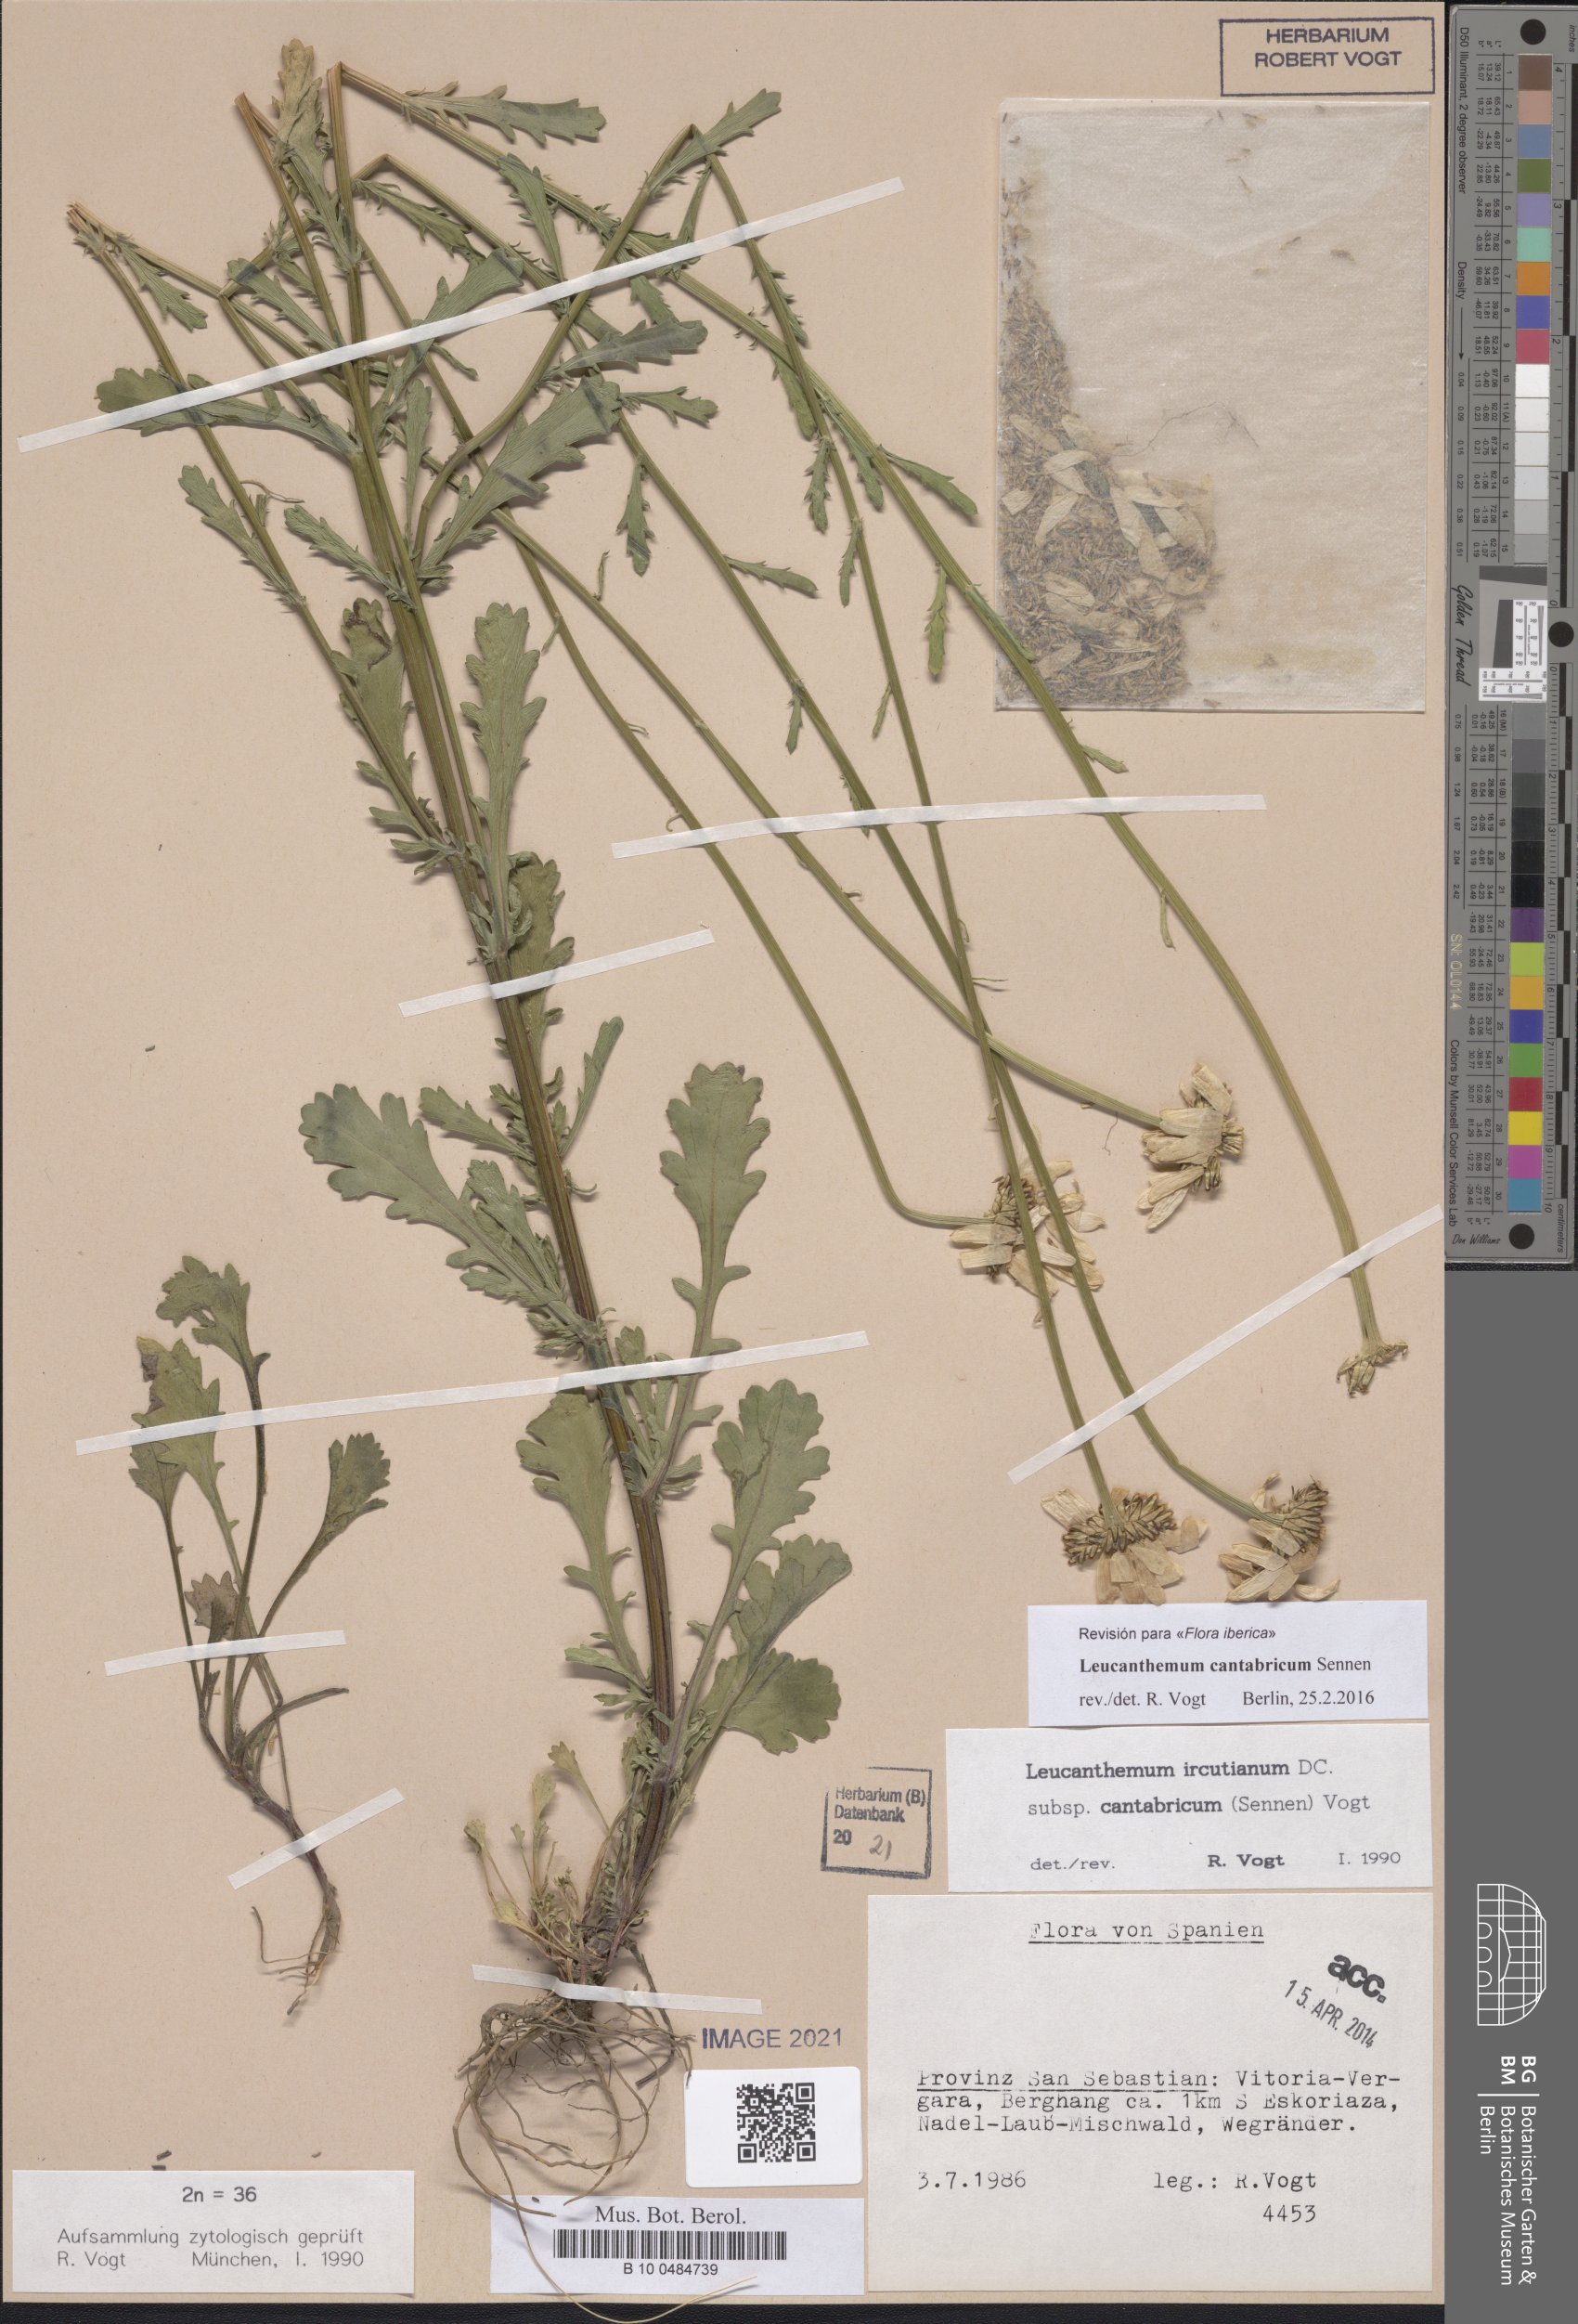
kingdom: Plantae
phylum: Tracheophyta
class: Magnoliopsida
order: Asterales
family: Asteraceae
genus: Leucanthemum
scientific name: Leucanthemum cantabricum
